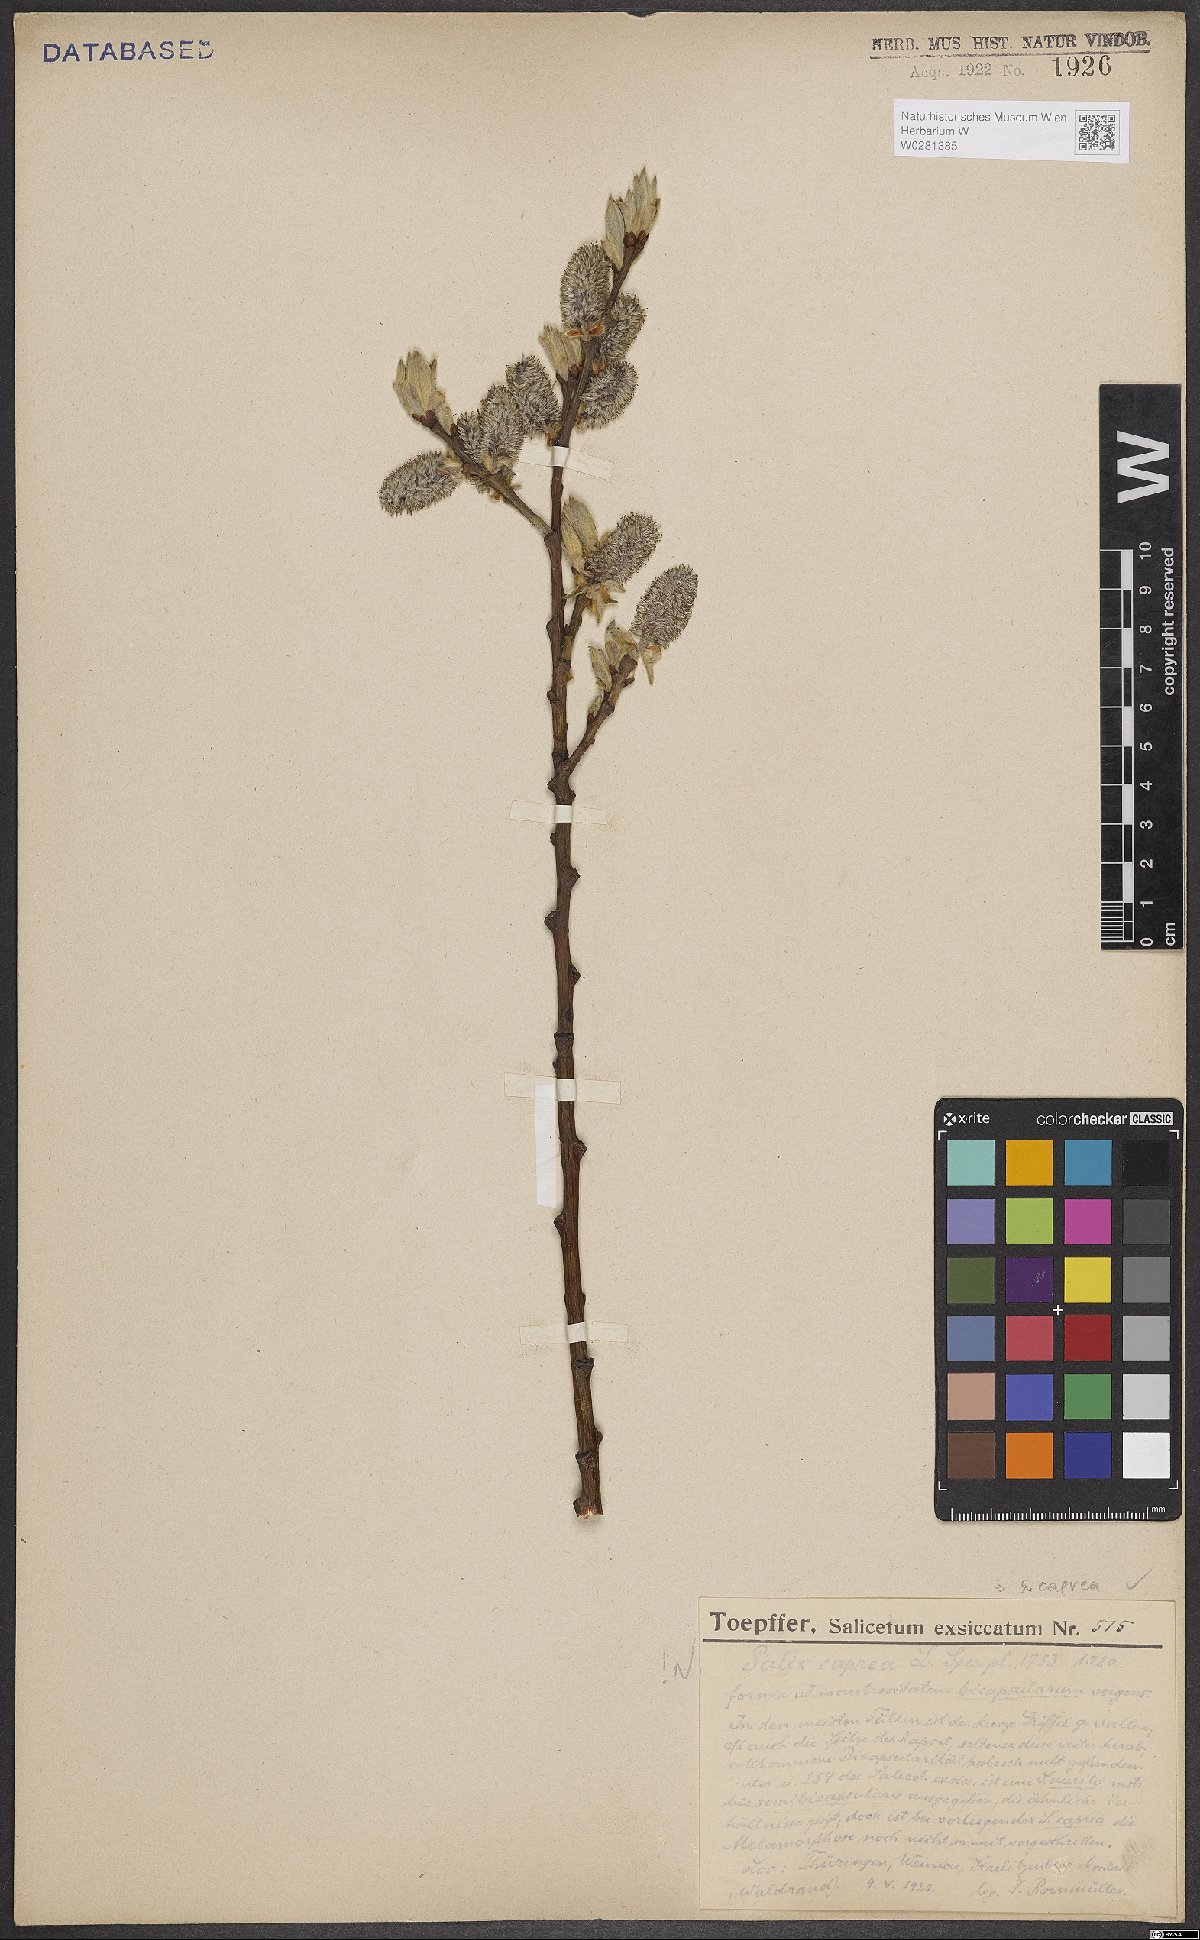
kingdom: Plantae
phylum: Tracheophyta
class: Magnoliopsida
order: Malpighiales
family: Salicaceae
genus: Salix
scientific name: Salix caprea
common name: Goat willow
